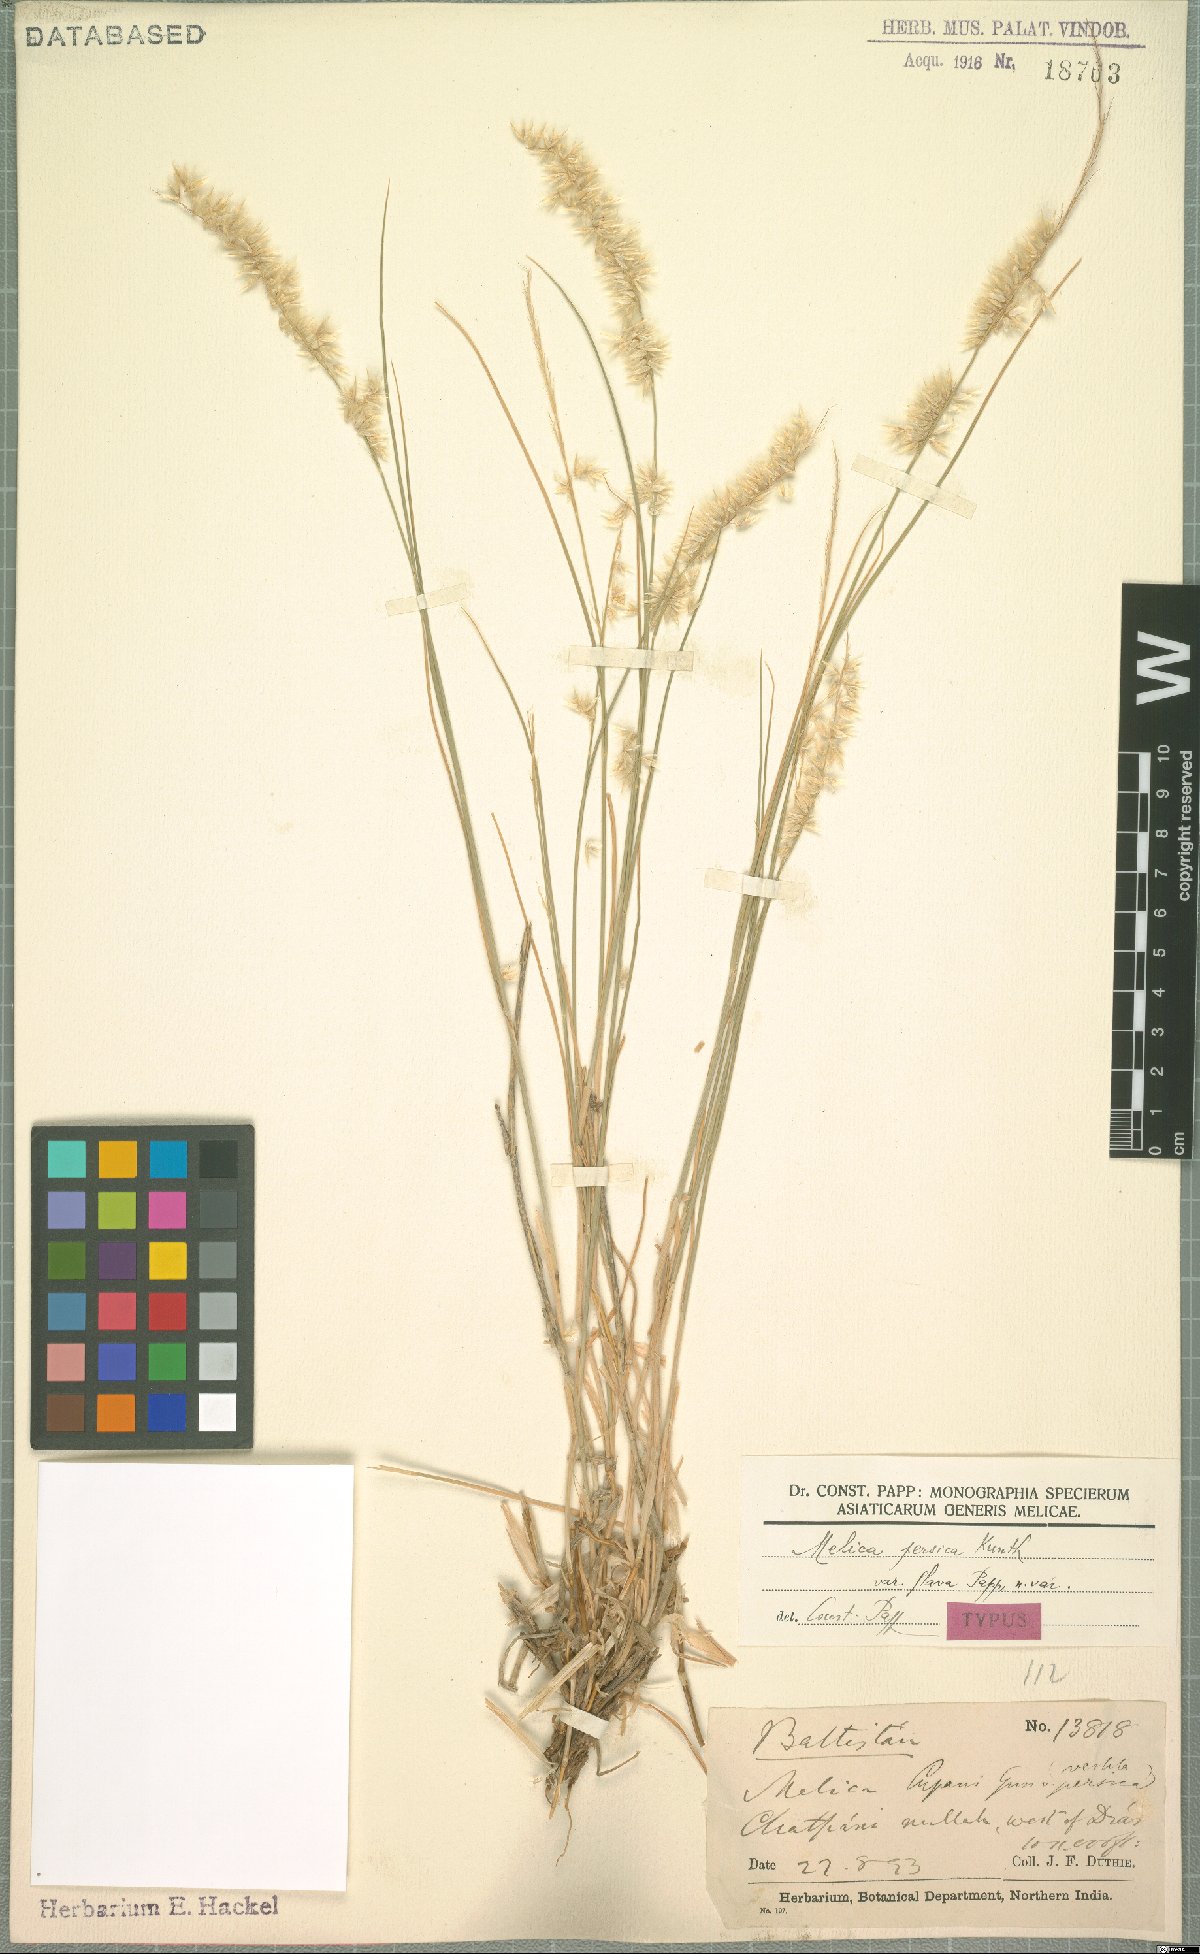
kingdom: Plantae
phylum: Tracheophyta
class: Liliopsida
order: Poales
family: Poaceae
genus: Melica
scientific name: Melica persica
